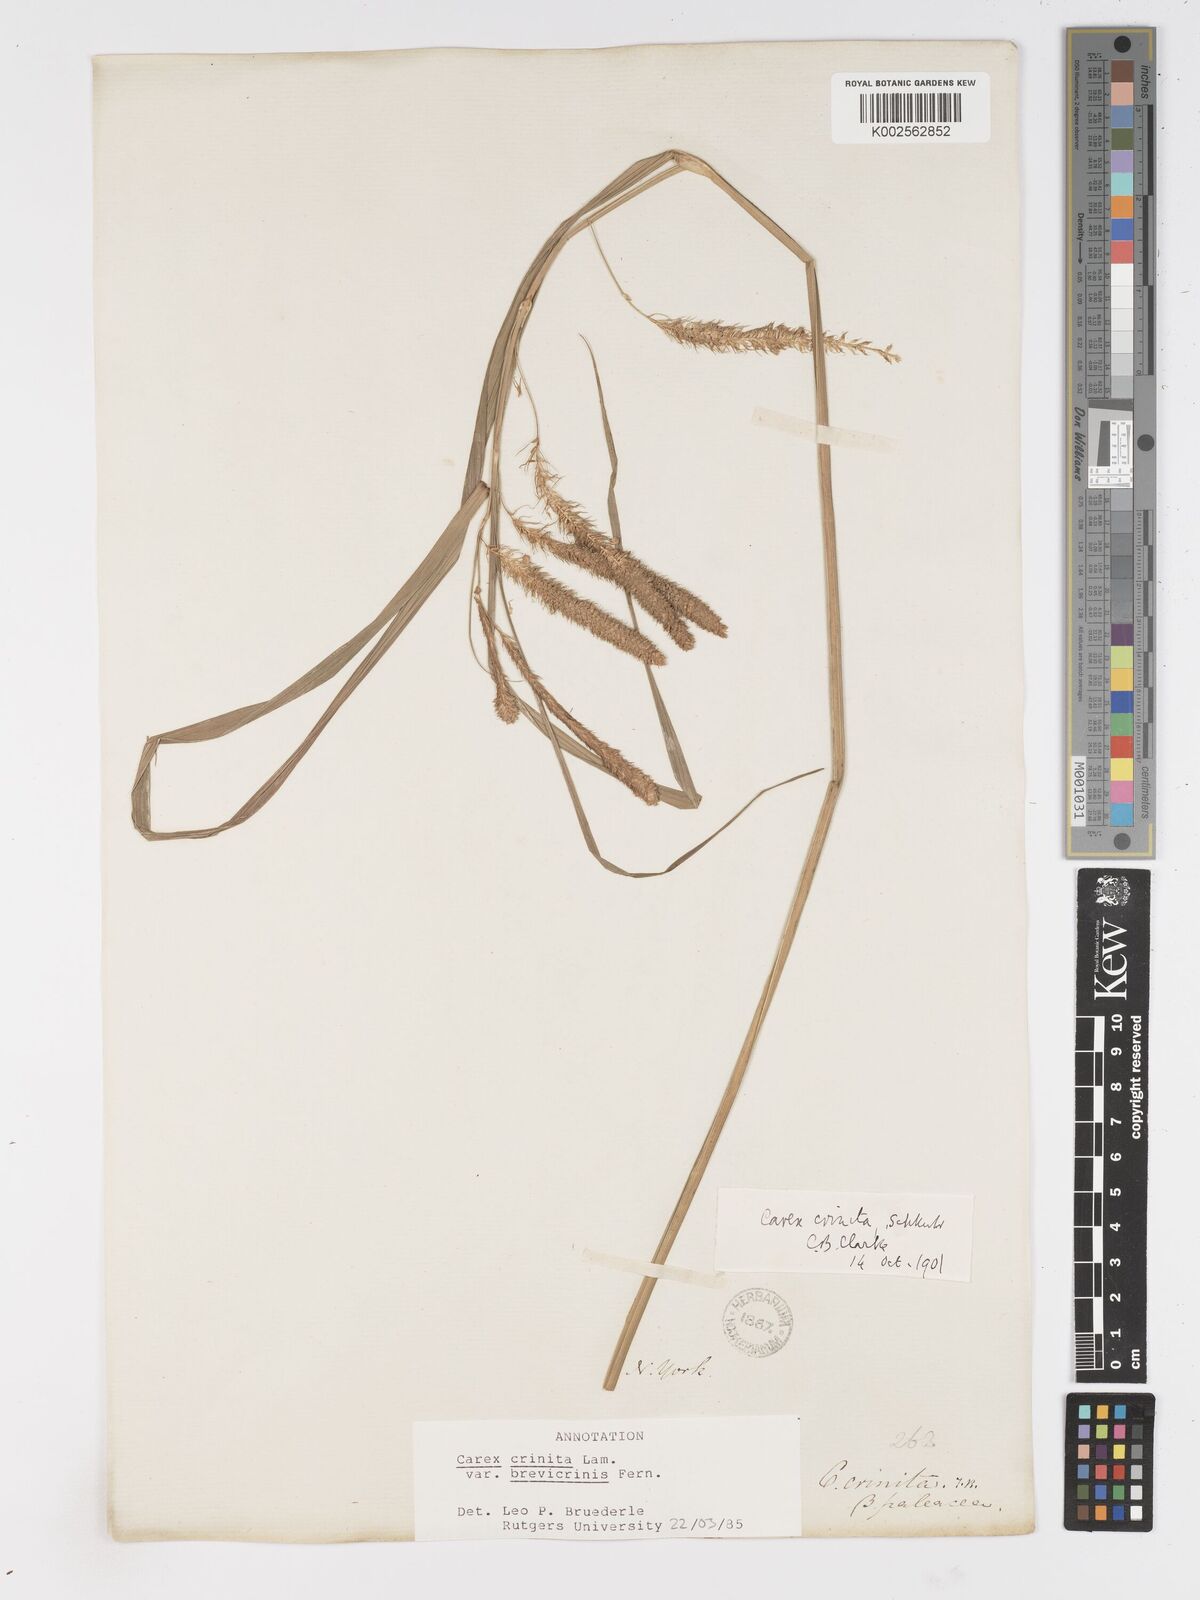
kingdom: Plantae
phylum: Tracheophyta
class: Liliopsida
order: Poales
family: Cyperaceae
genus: Carex
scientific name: Carex crinita
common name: Fringed sedge
